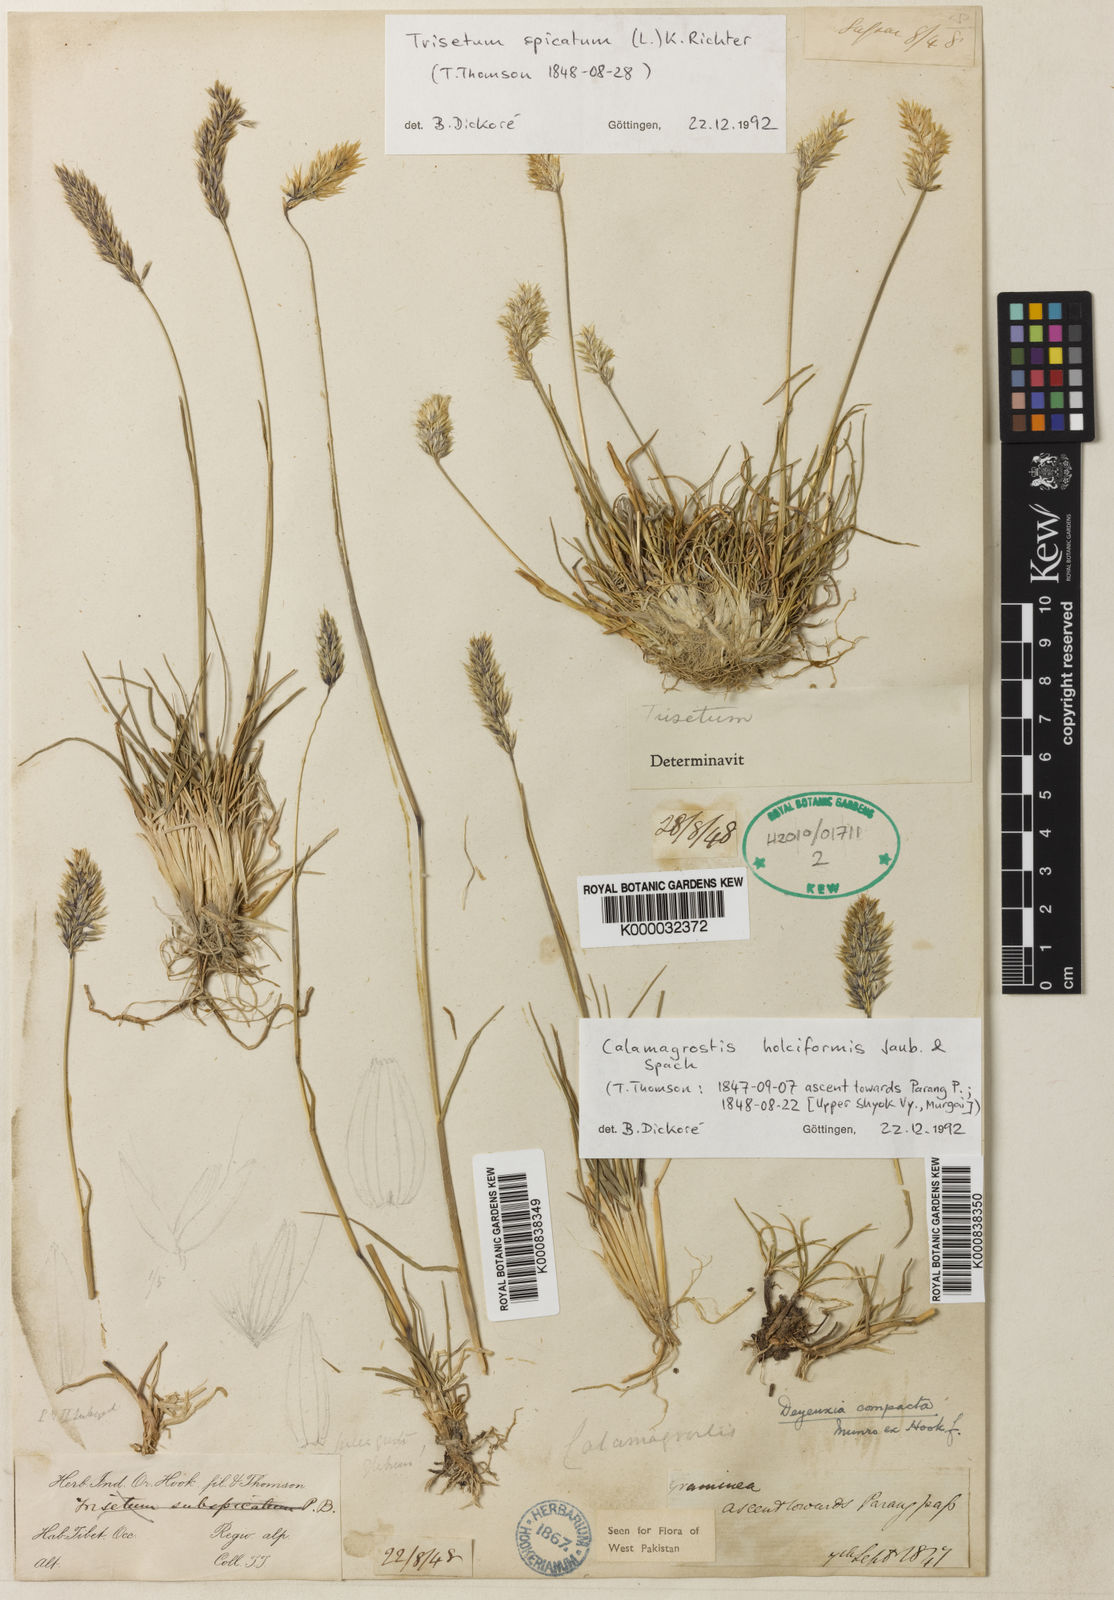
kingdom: Plantae
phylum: Tracheophyta
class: Liliopsida
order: Poales
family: Poaceae
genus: Calamagrostis
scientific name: Calamagrostis holciformis
